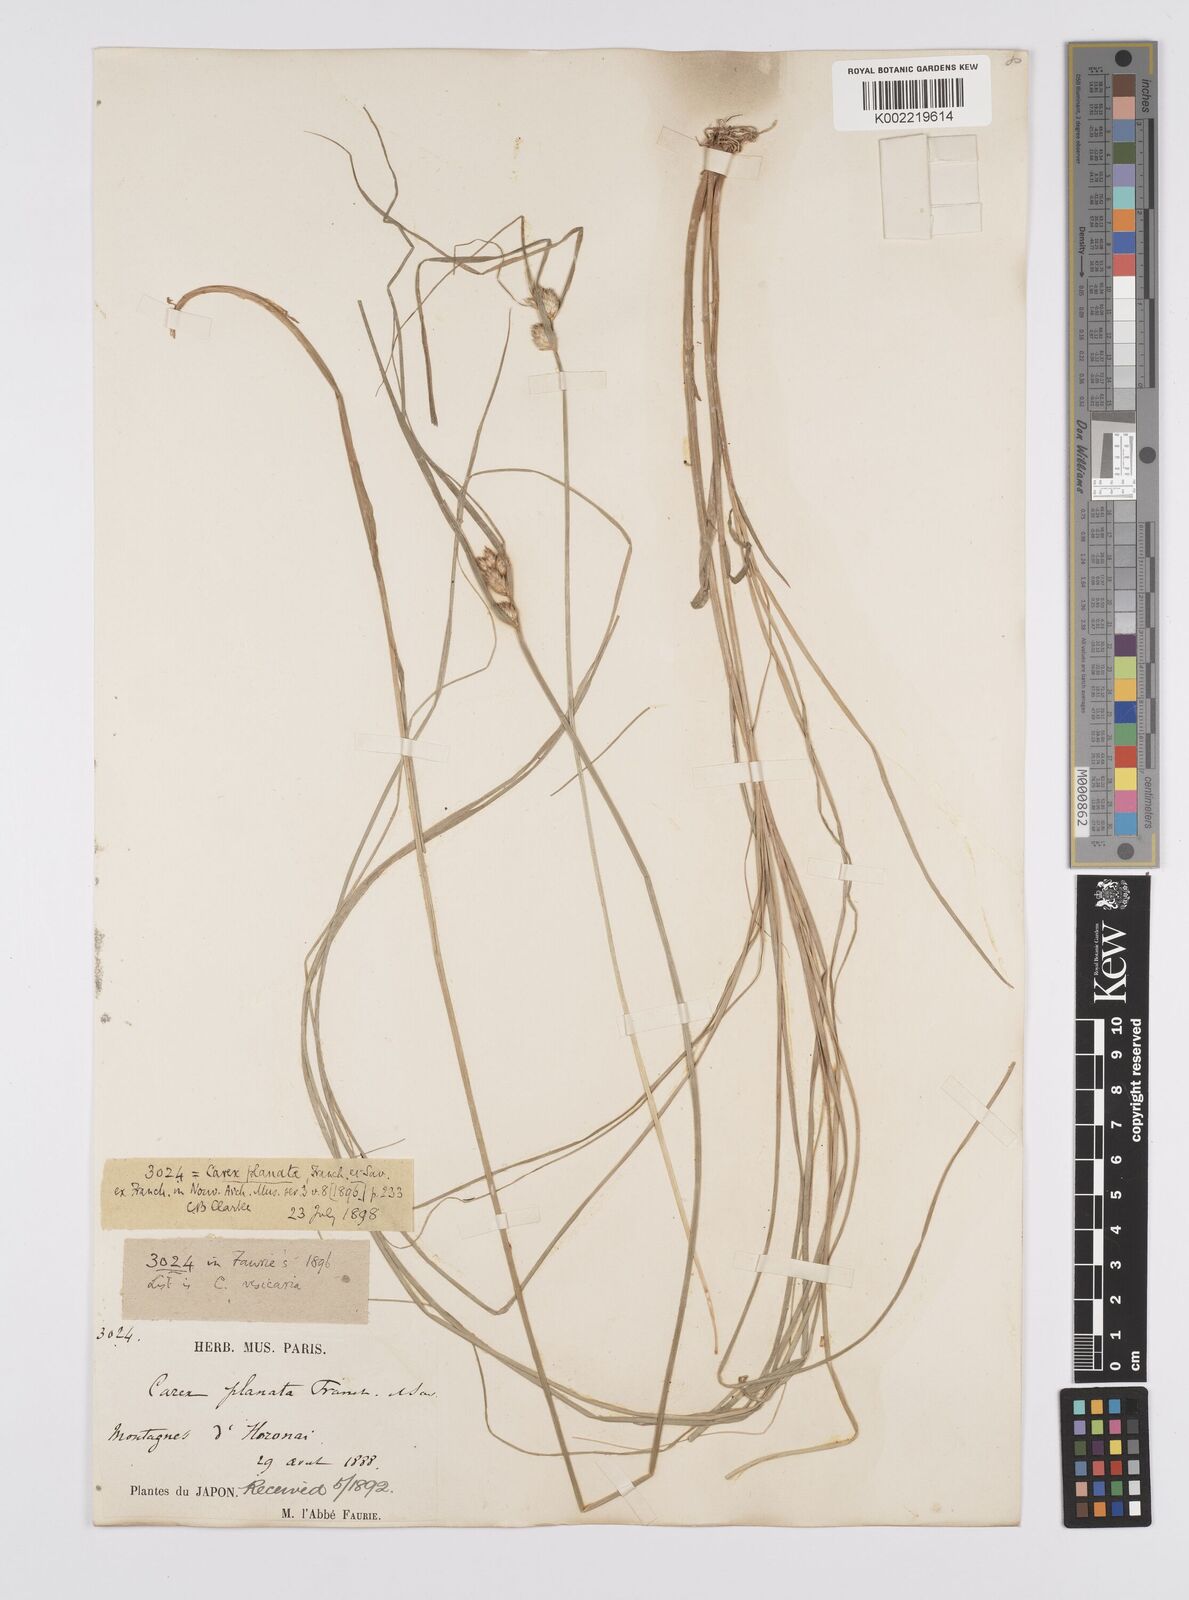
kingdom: Plantae
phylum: Tracheophyta
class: Liliopsida
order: Poales
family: Cyperaceae
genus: Carex
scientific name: Carex planata
